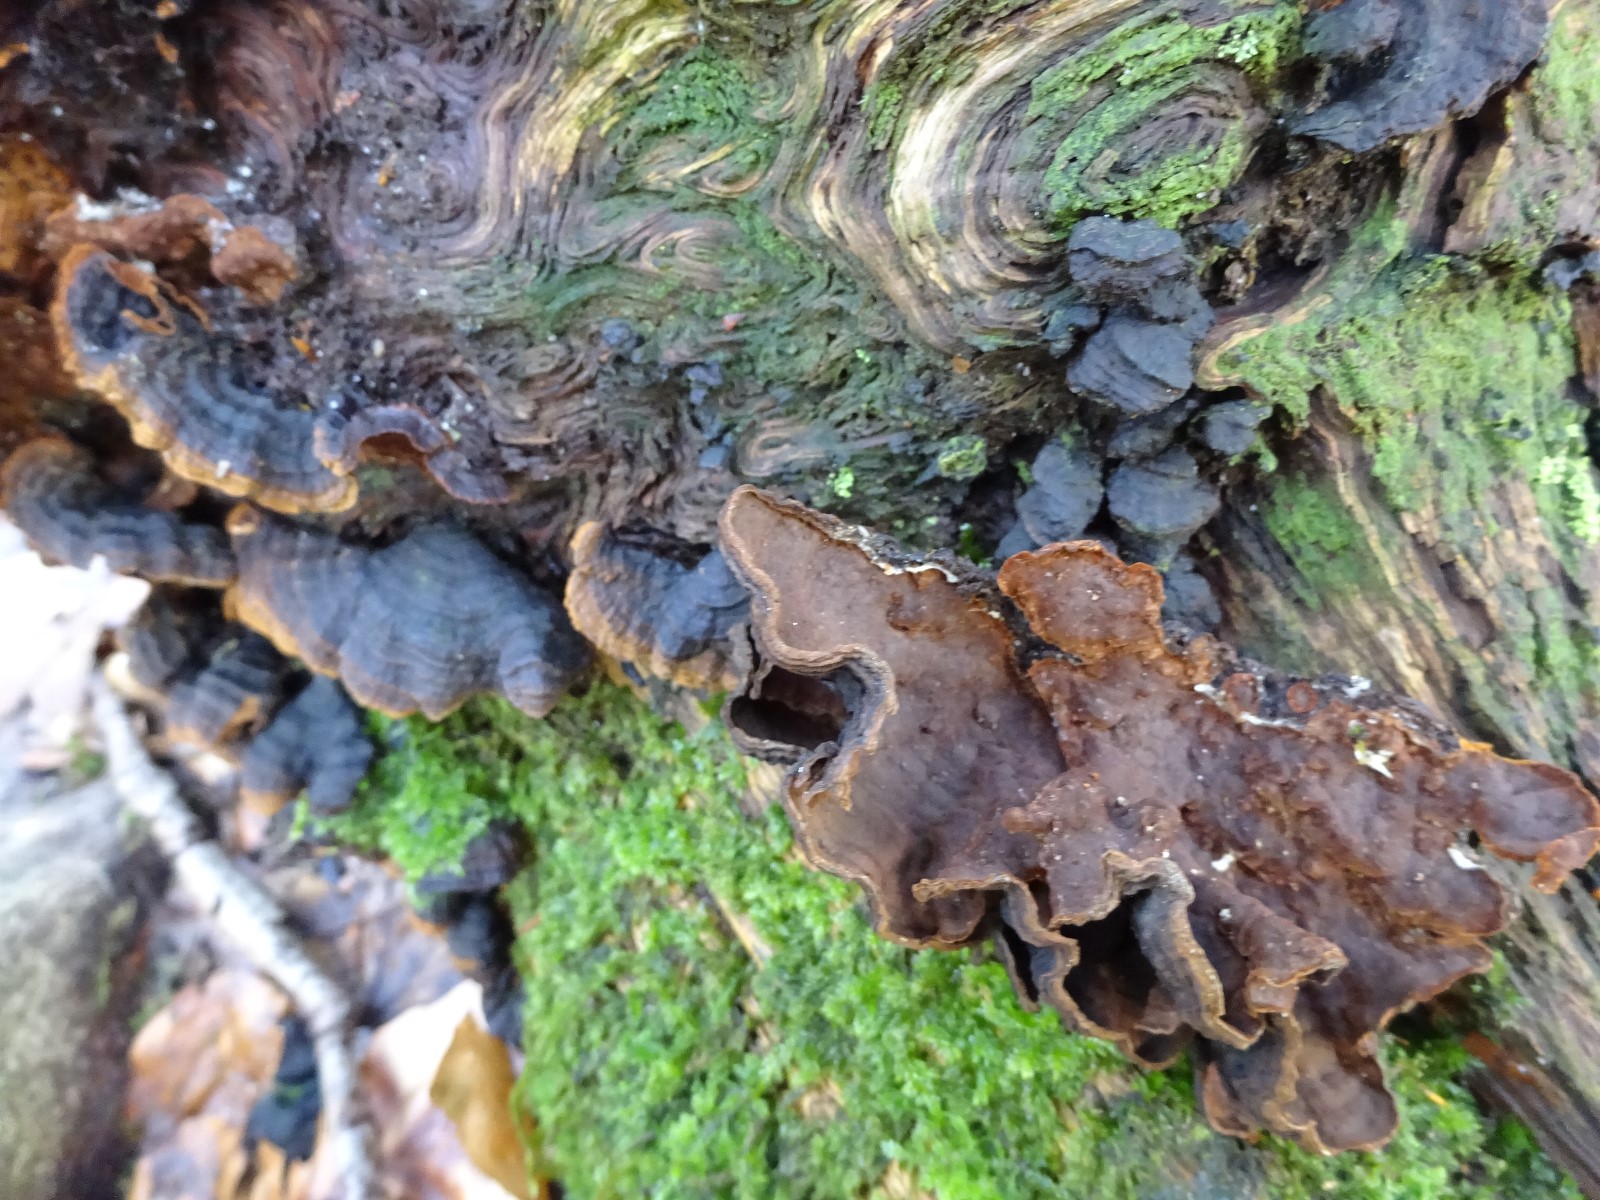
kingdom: Fungi
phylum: Basidiomycota
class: Agaricomycetes
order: Hymenochaetales
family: Hymenochaetaceae
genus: Hymenochaete
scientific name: Hymenochaete rubiginosa
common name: stiv ruslædersvamp
